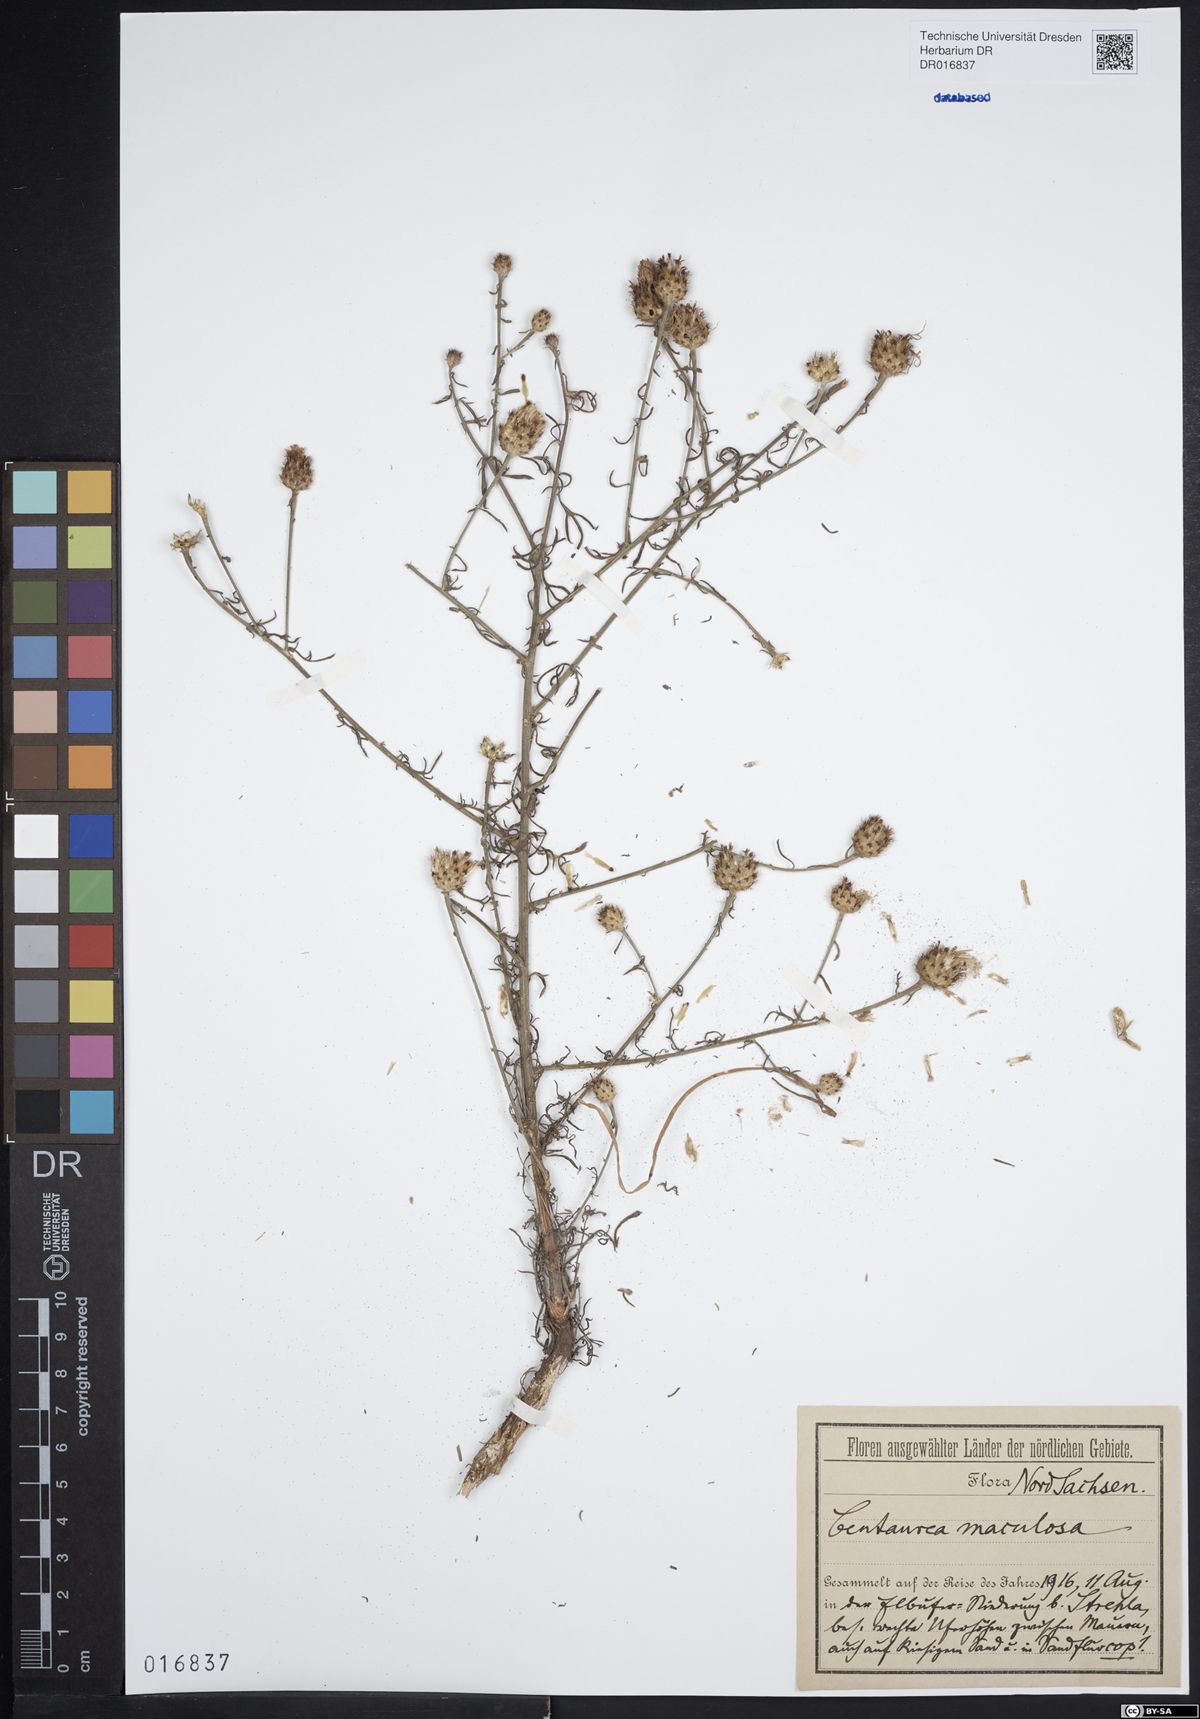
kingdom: Plantae
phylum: Tracheophyta
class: Magnoliopsida
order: Asterales
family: Asteraceae
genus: Centaurea
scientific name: Centaurea stoebe
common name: Spotted knapweed
